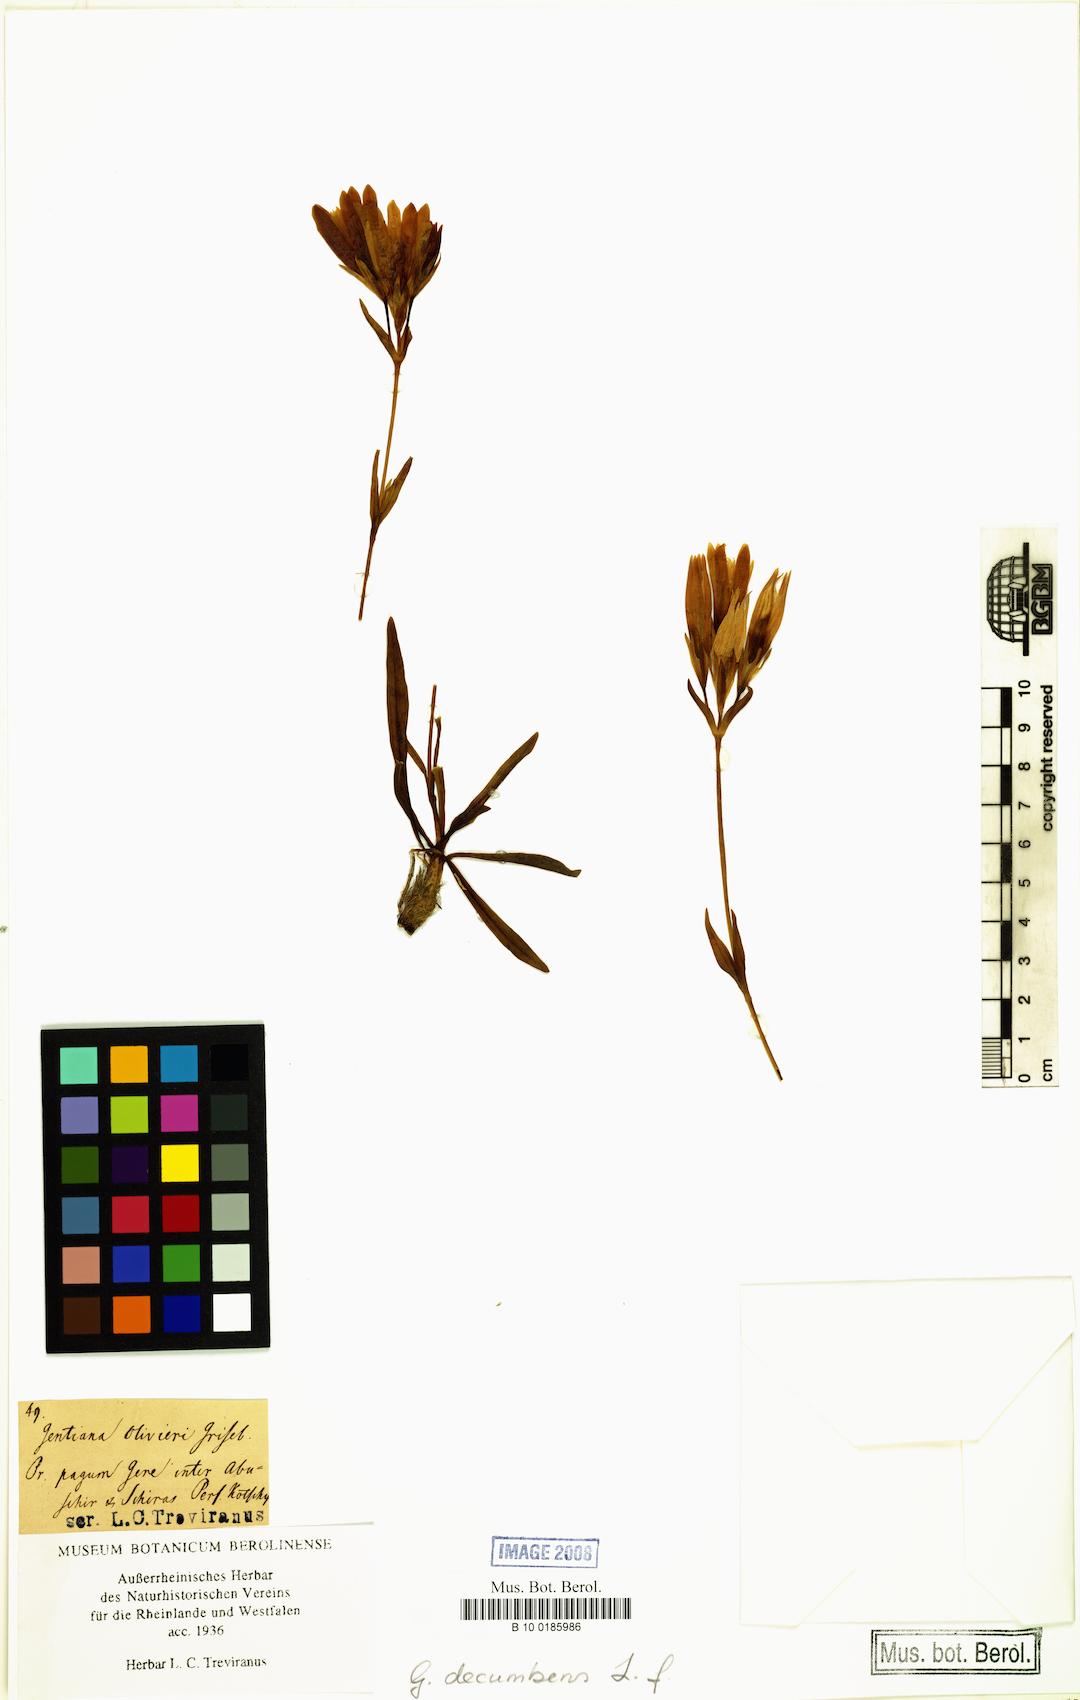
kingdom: Plantae
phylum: Tracheophyta
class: Magnoliopsida
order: Gentianales
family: Gentianaceae
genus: Gentiana
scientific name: Gentiana decumbens
